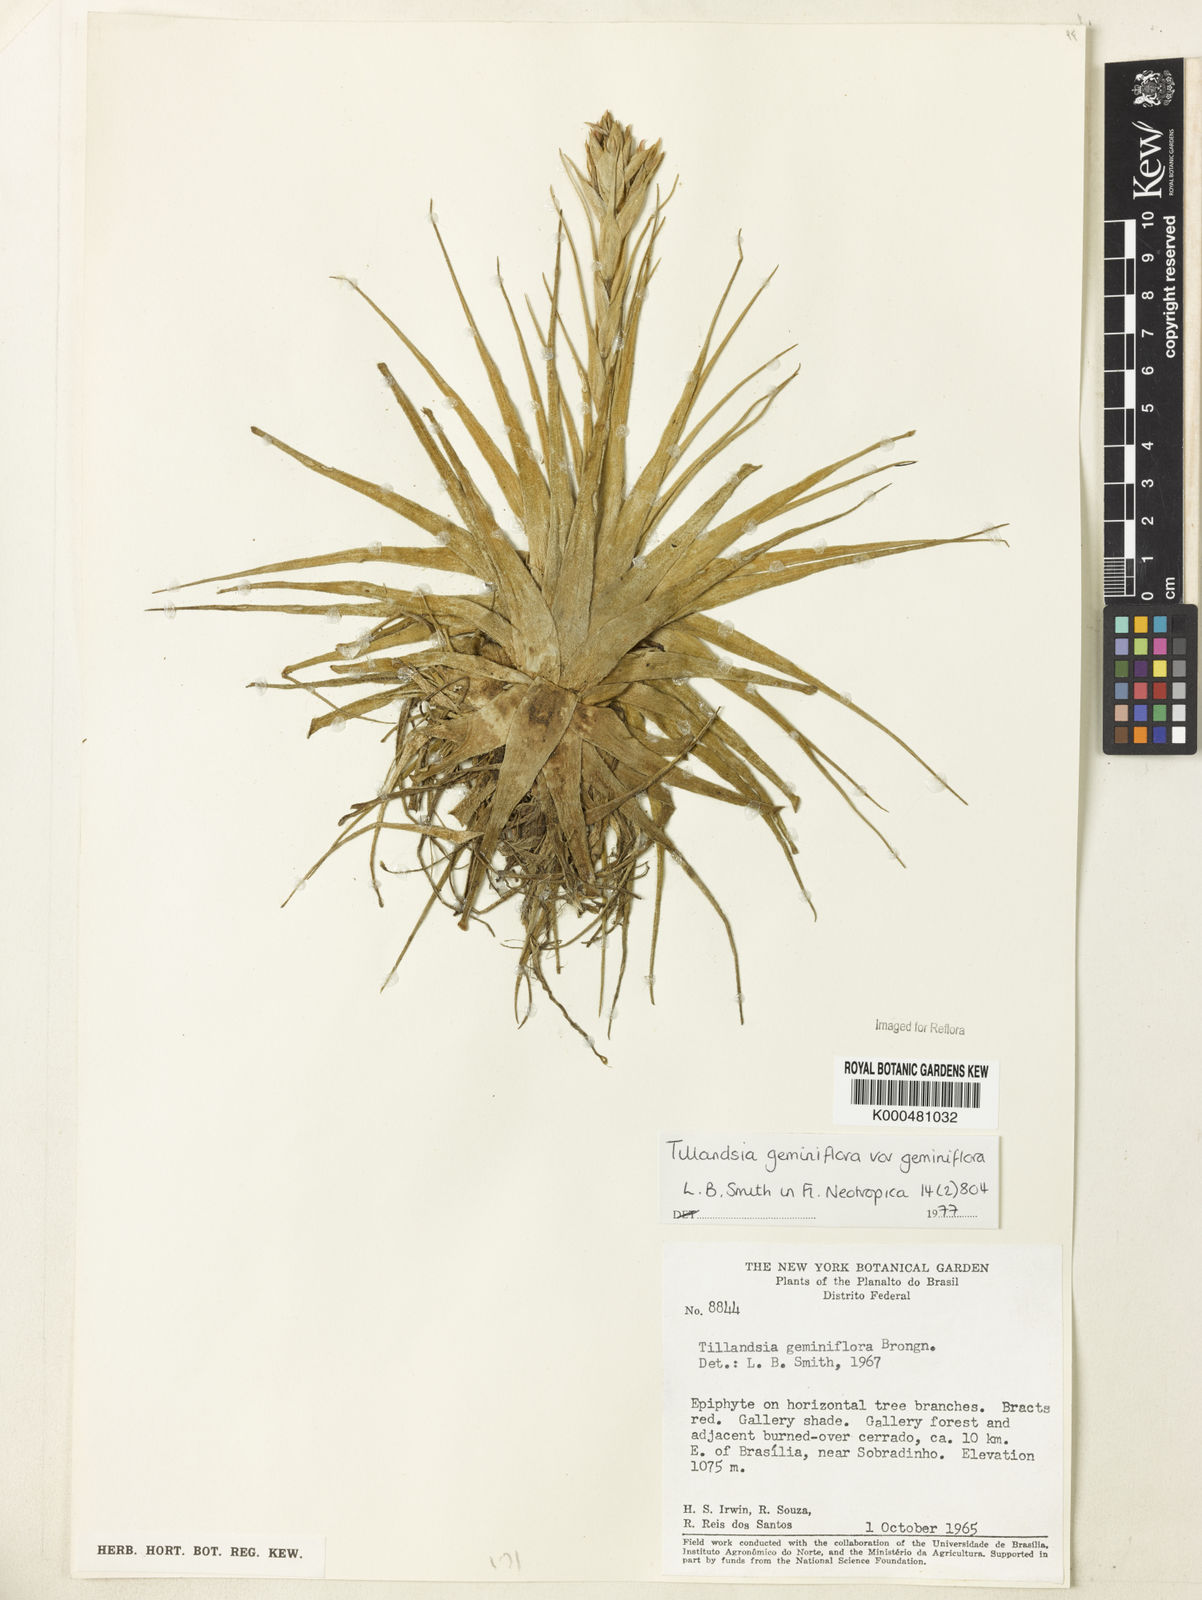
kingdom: Plantae
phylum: Tracheophyta
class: Liliopsida
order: Poales
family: Bromeliaceae
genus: Tillandsia
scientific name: Tillandsia geminiflora
